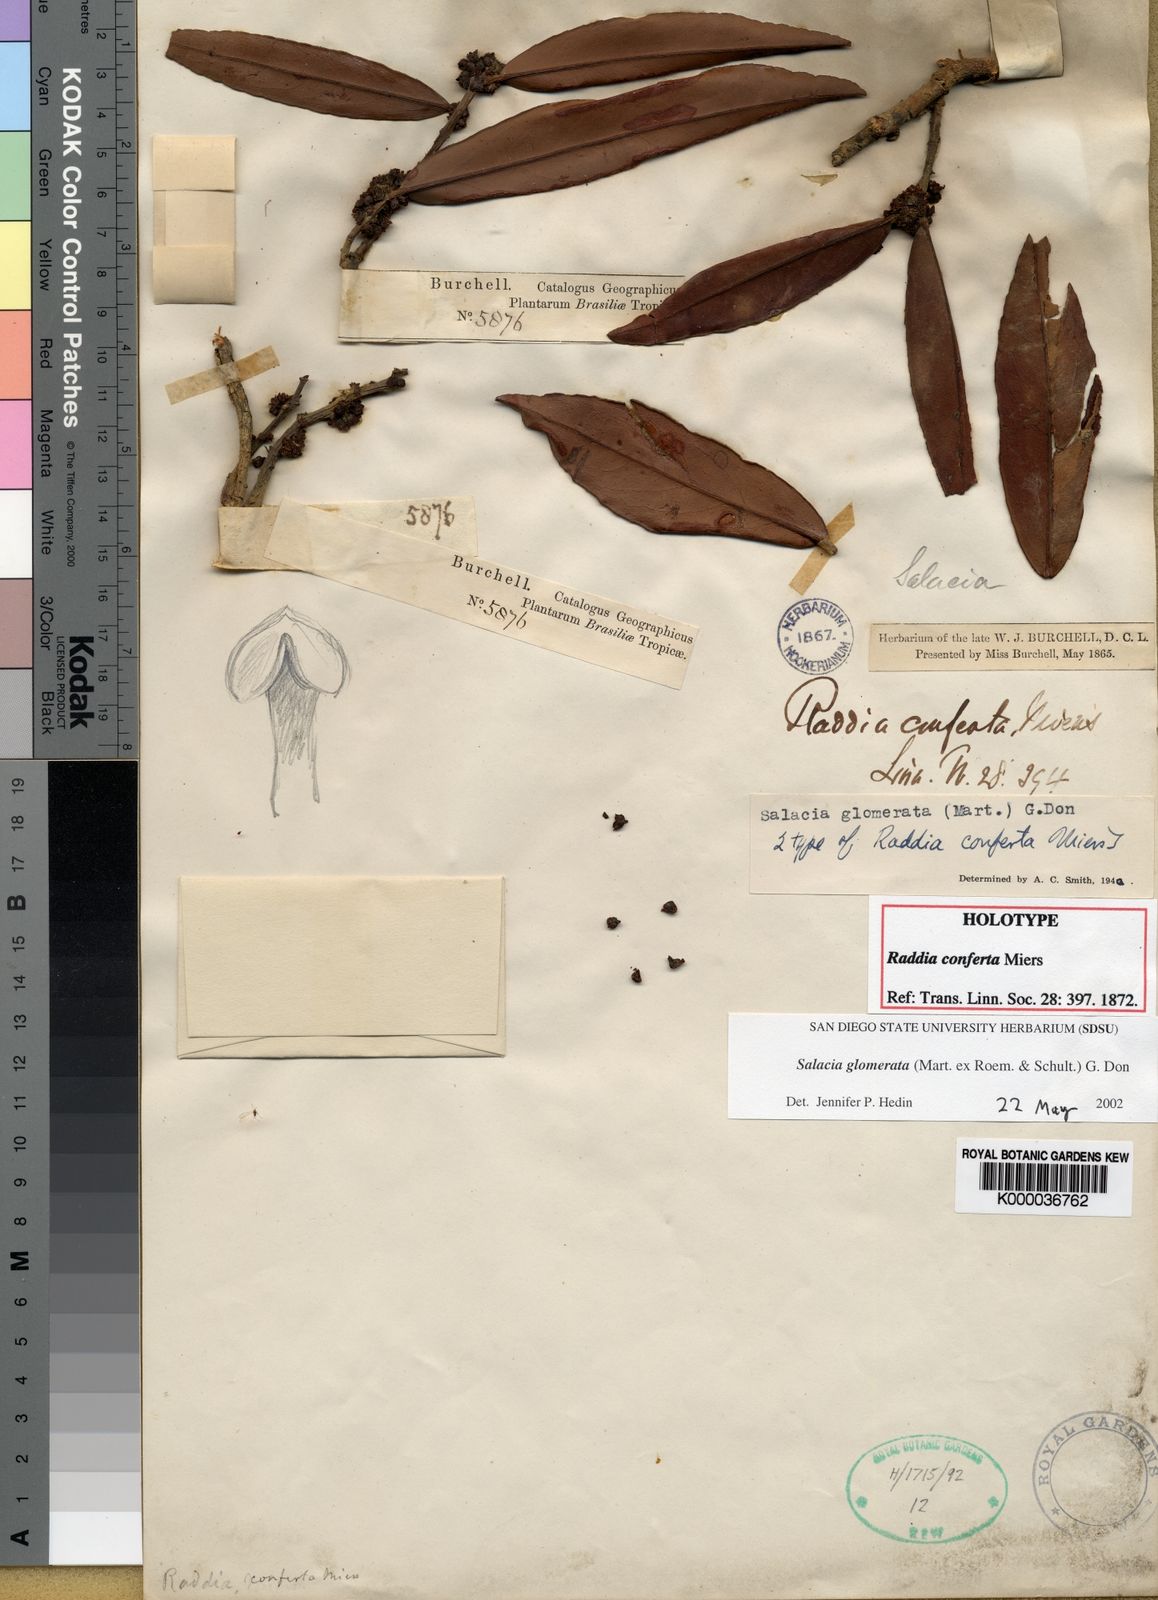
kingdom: Plantae
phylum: Tracheophyta
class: Magnoliopsida
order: Celastrales
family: Celastraceae
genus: Salacia
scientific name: Salacia crassifolia
